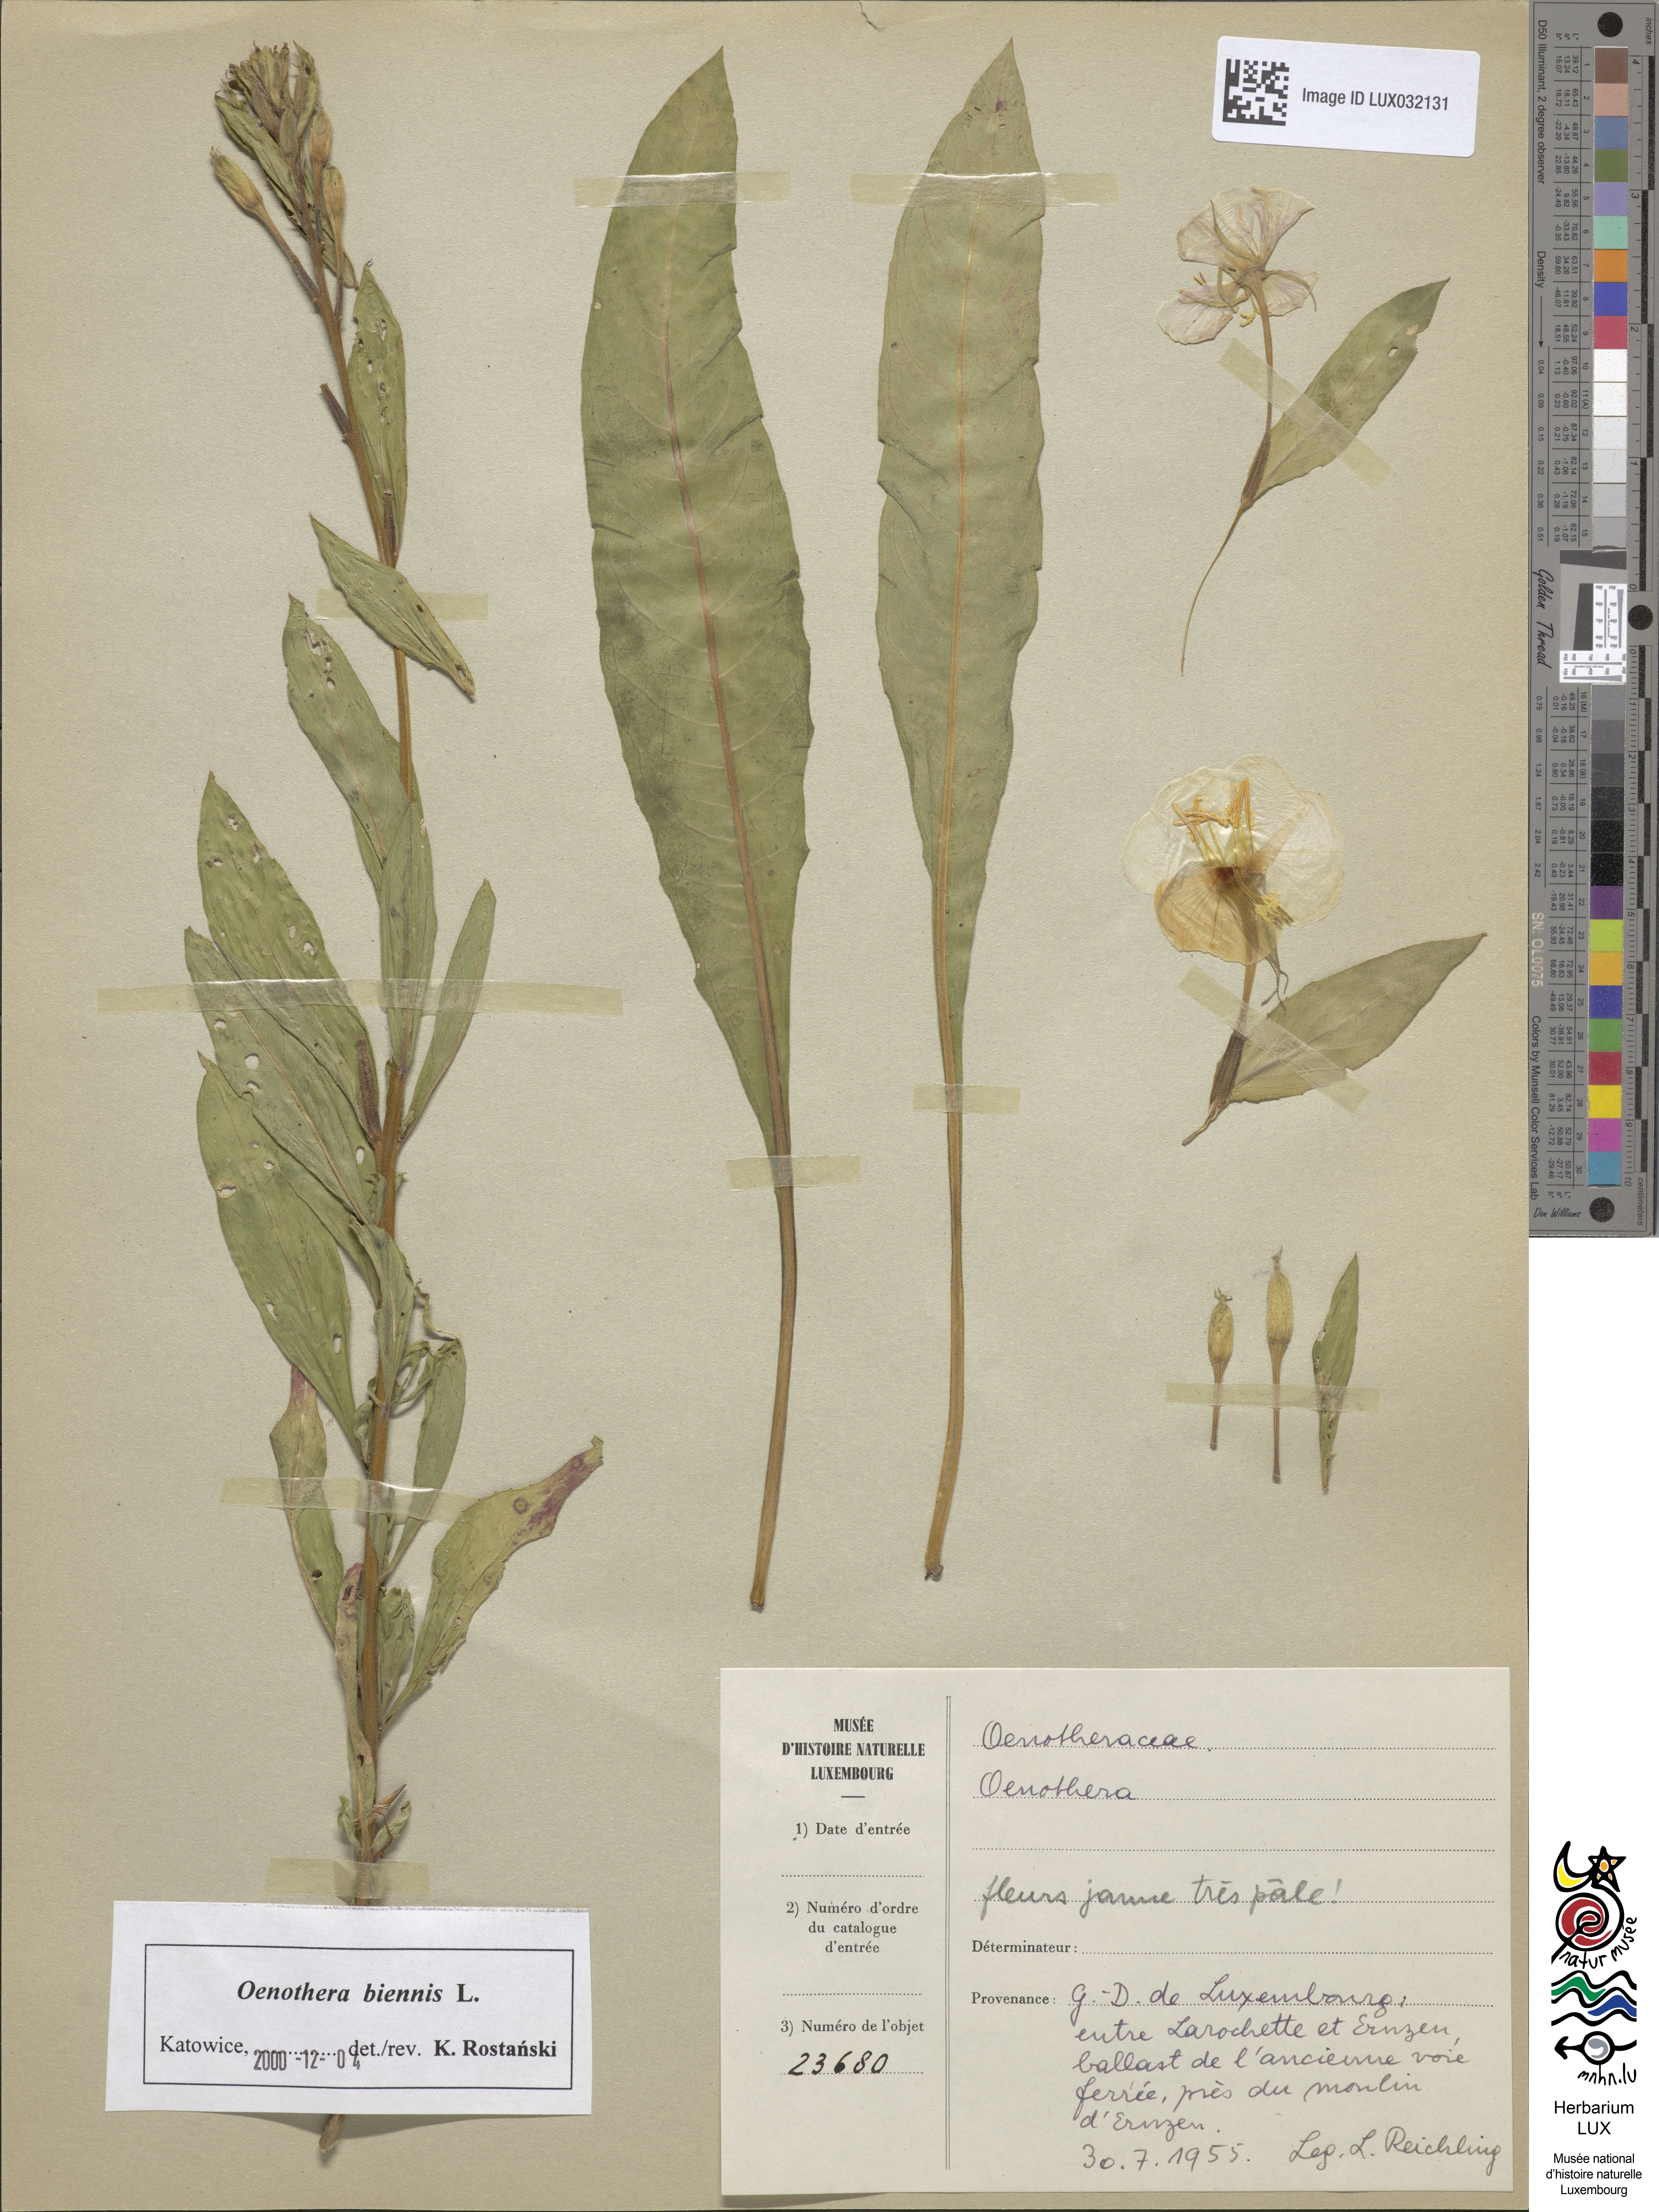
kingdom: Plantae
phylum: Tracheophyta
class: Magnoliopsida
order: Myrtales
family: Onagraceae
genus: Oenothera
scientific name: Oenothera
